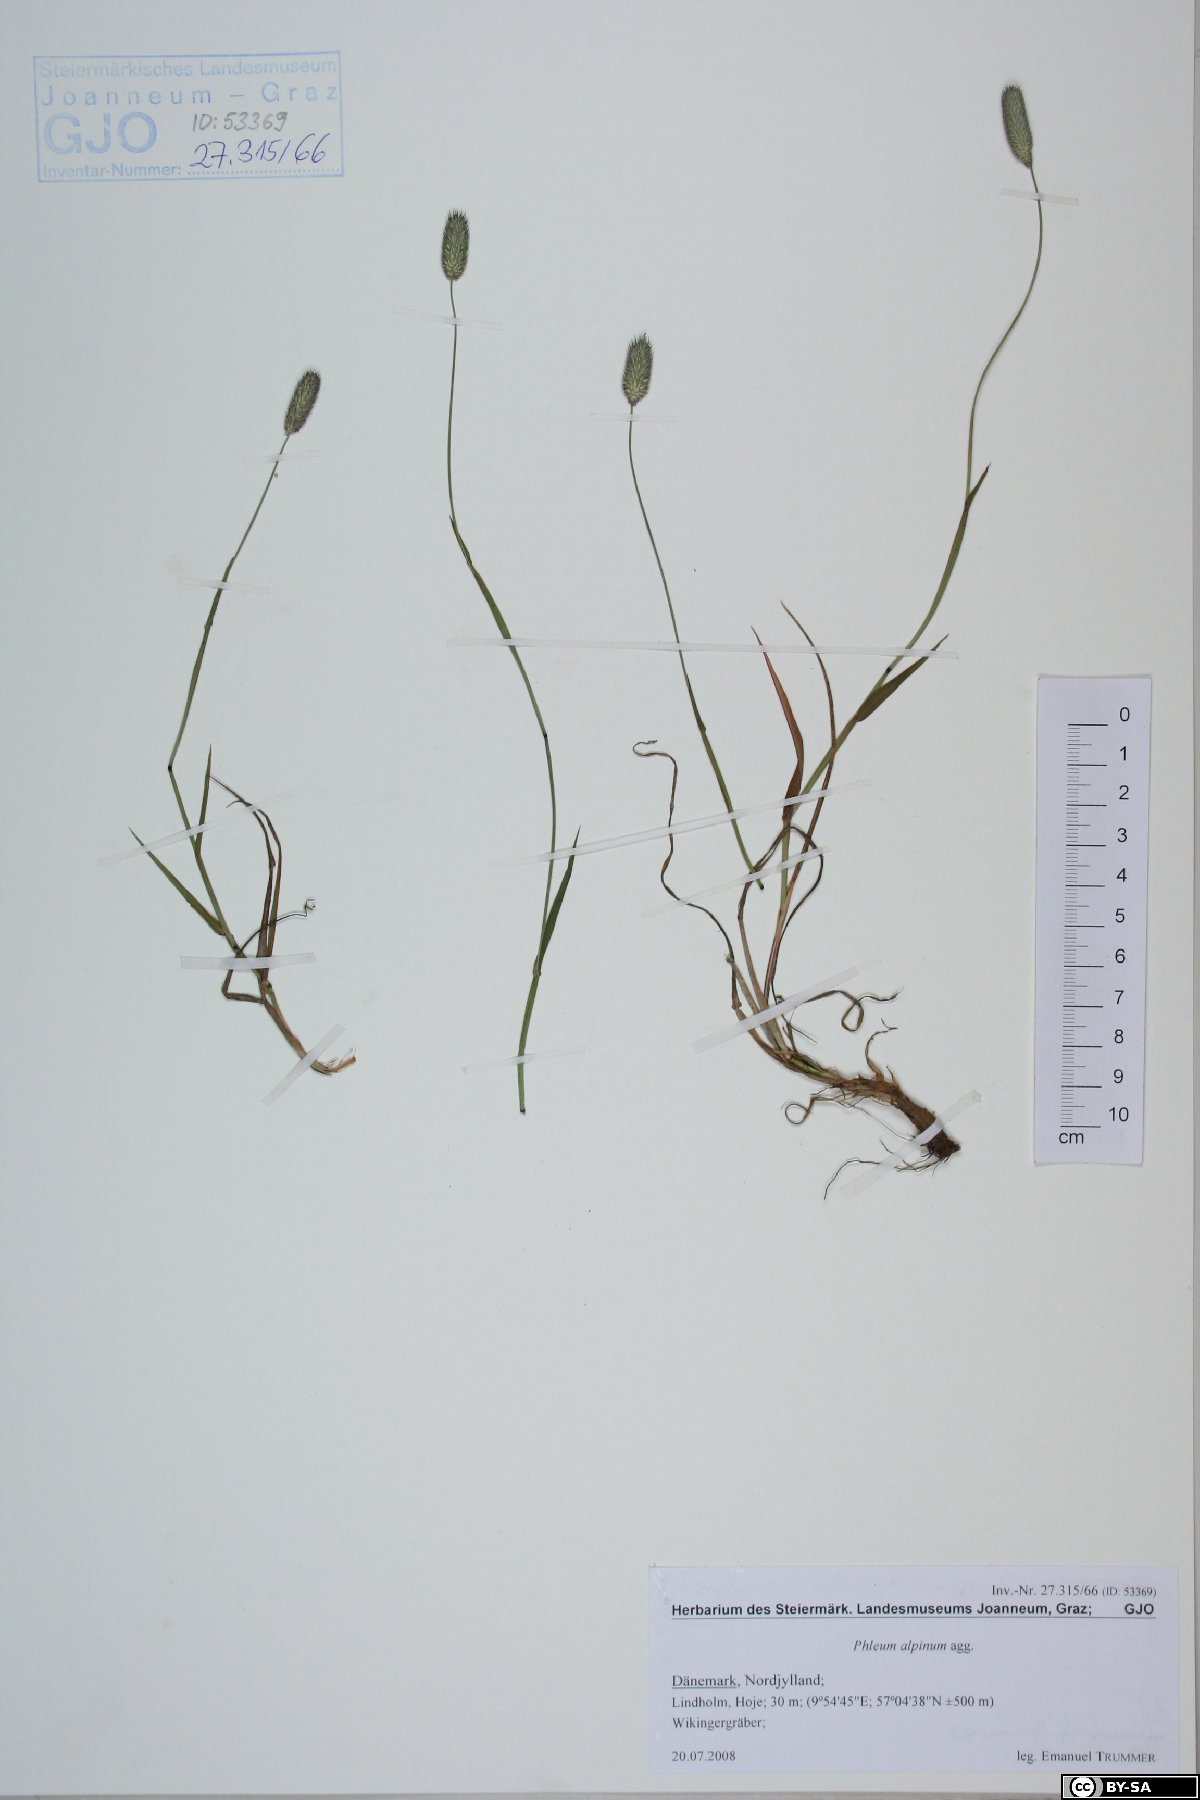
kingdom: Plantae
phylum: Tracheophyta
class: Liliopsida
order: Poales
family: Poaceae
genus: Phleum
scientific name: Phleum alpinum
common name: Alpine cat's-tail
